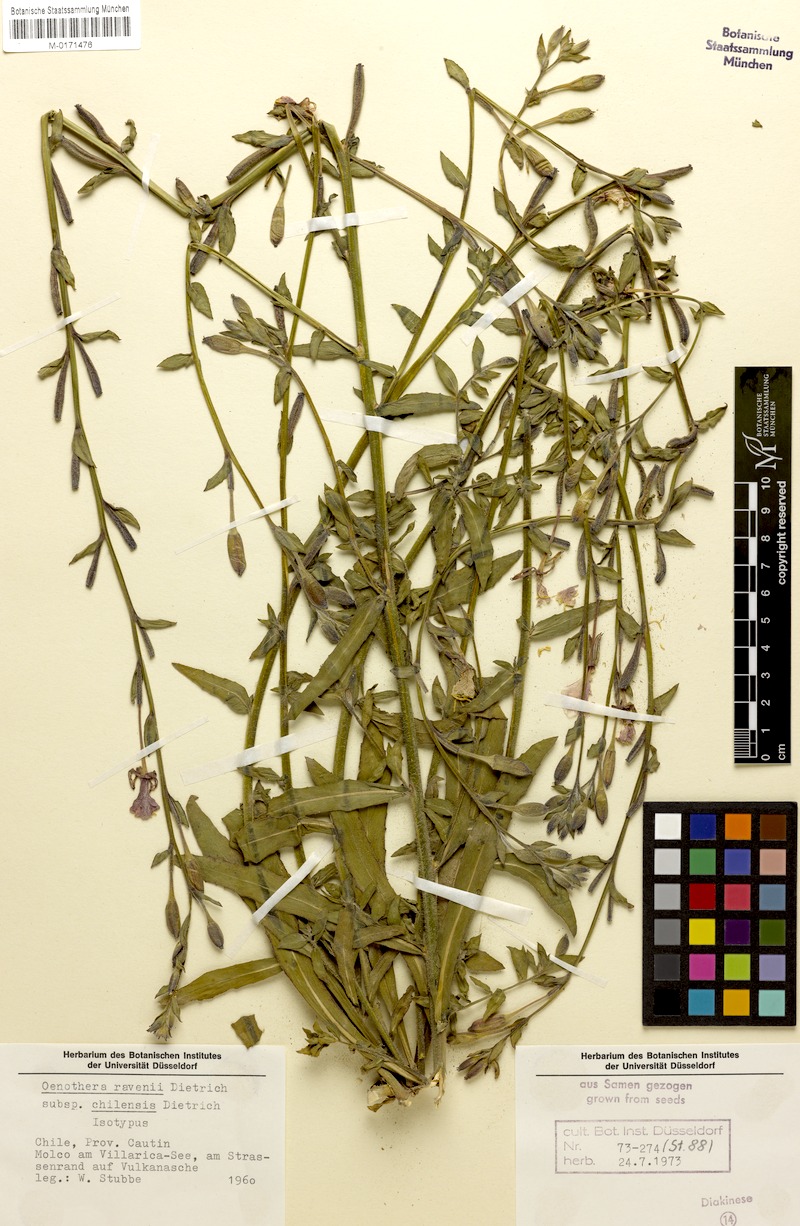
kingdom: Plantae
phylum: Tracheophyta
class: Magnoliopsida
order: Myrtales
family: Onagraceae
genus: Oenothera
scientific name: Oenothera ravenii
